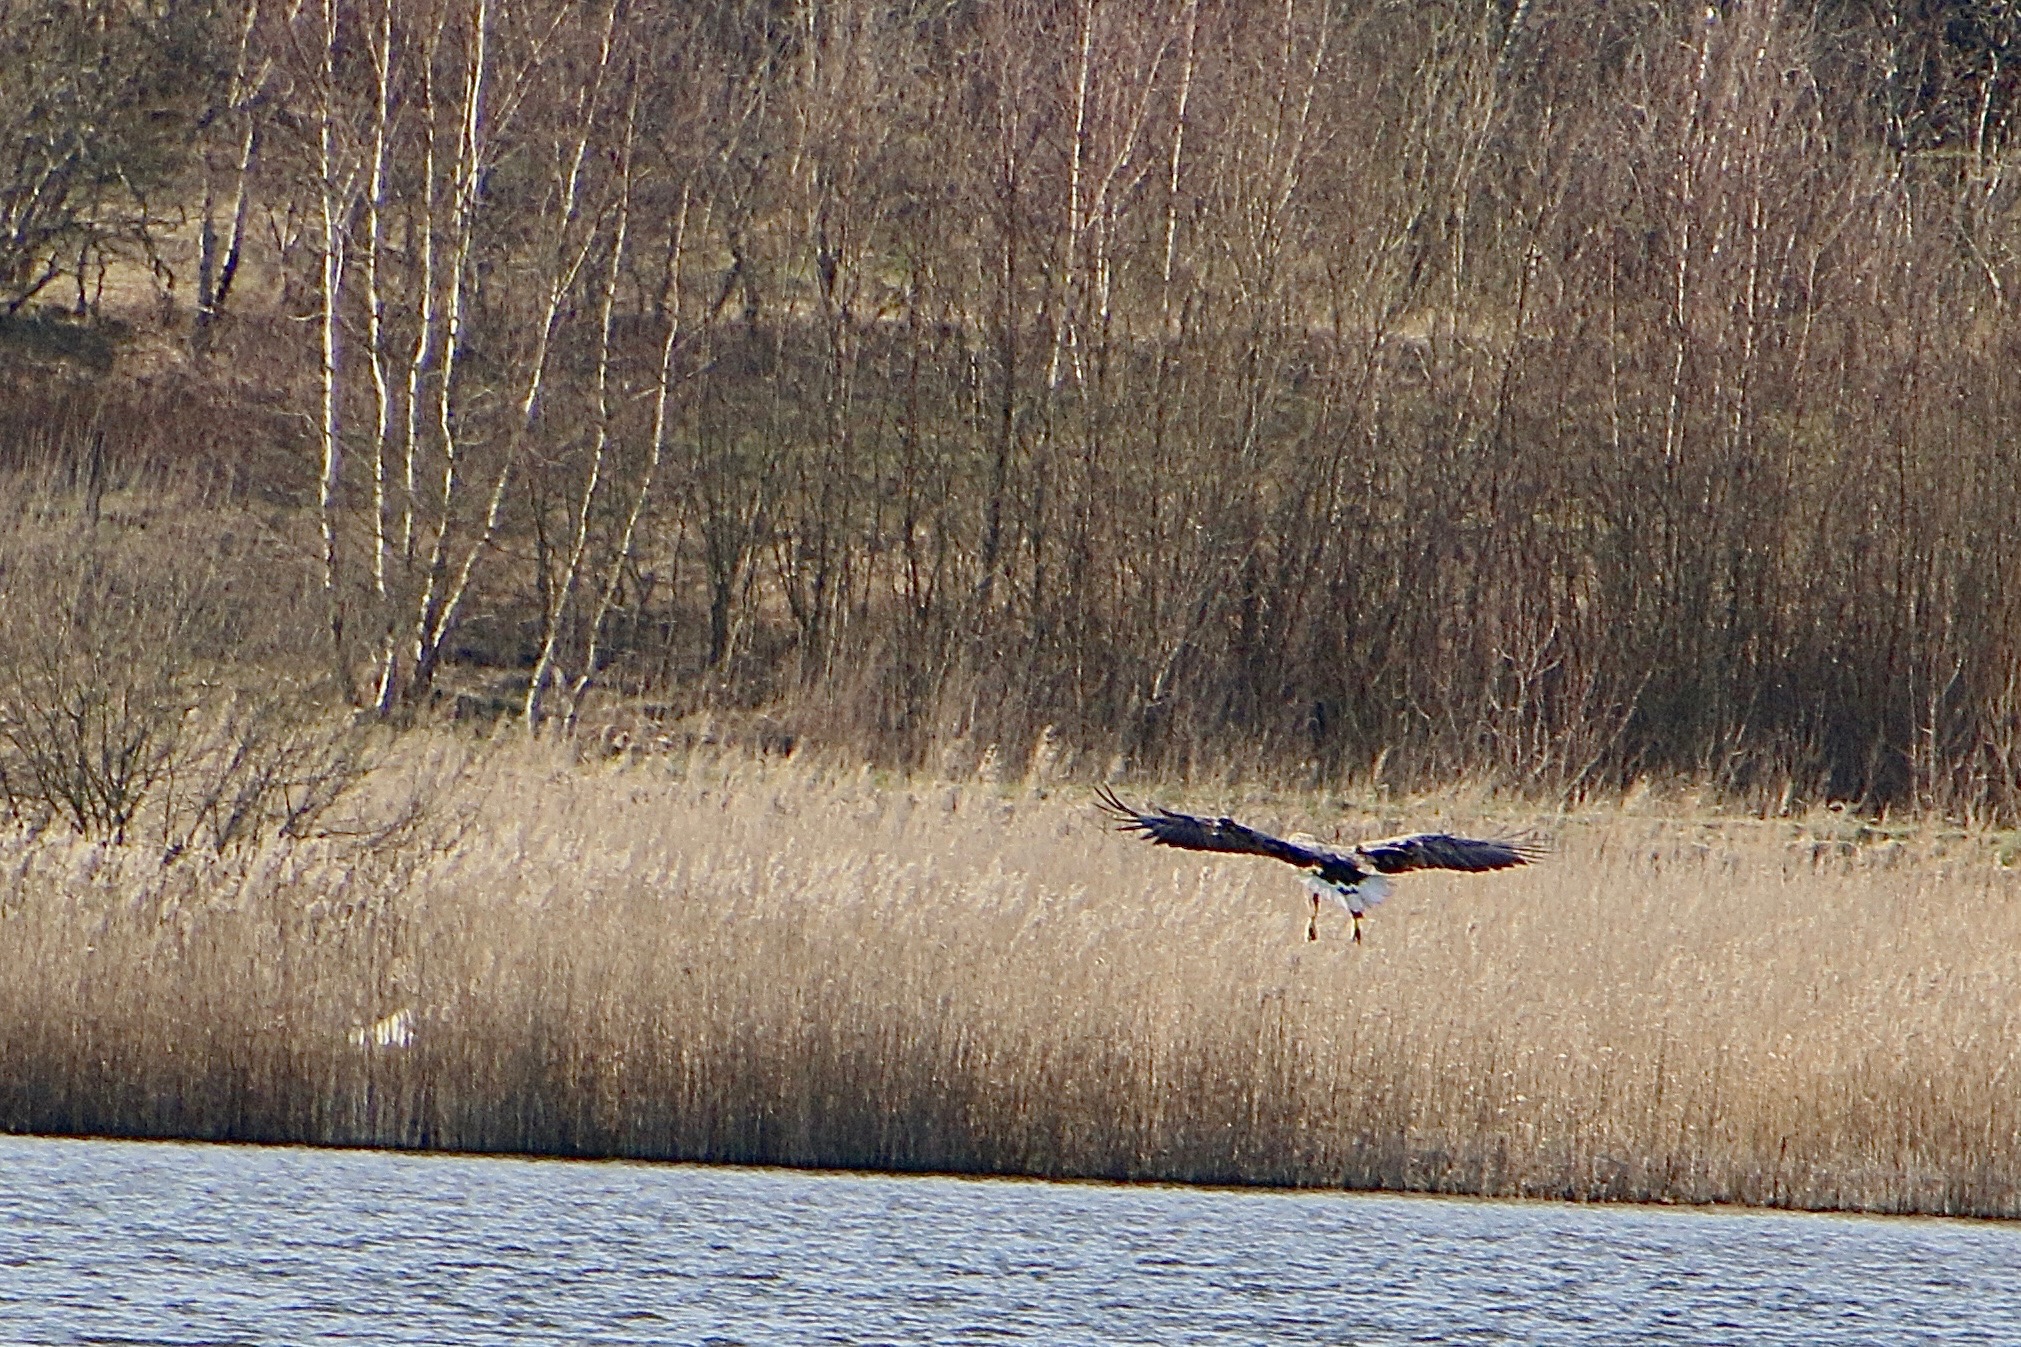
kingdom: Animalia
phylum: Chordata
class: Aves
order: Accipitriformes
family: Accipitridae
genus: Haliaeetus
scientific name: Haliaeetus albicilla
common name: Havørn
